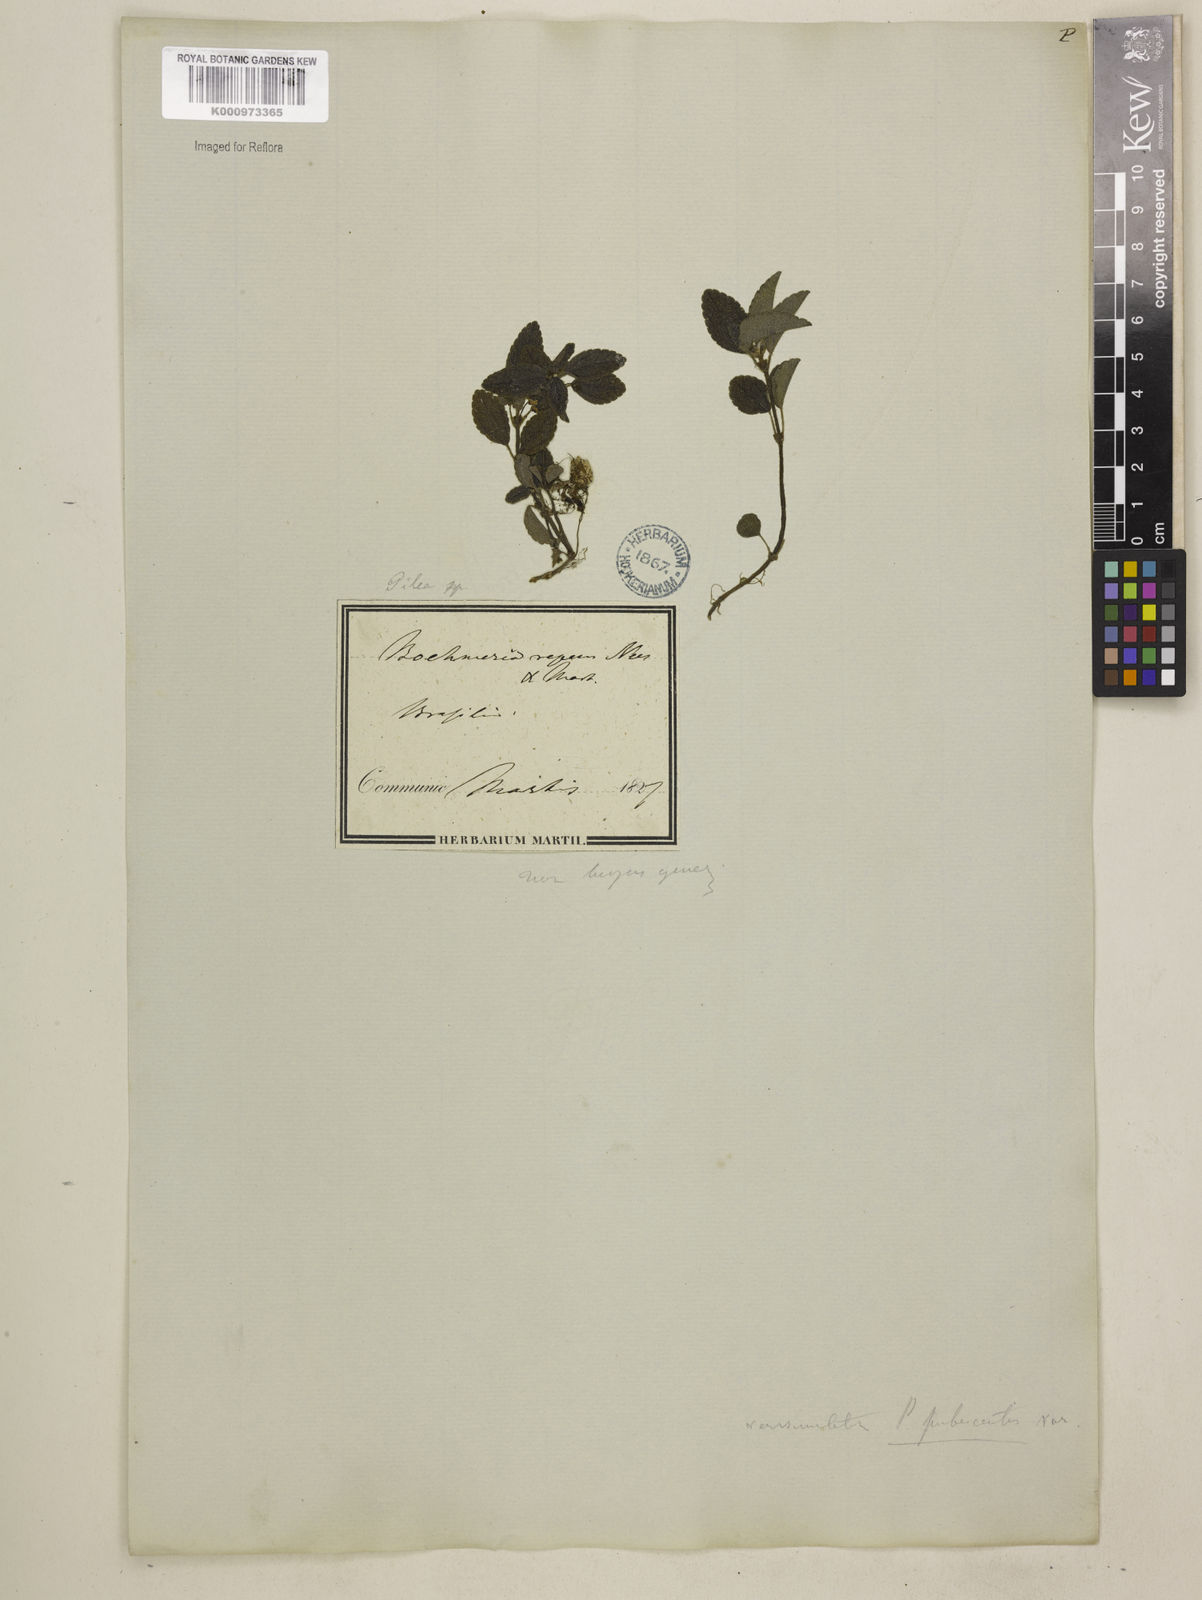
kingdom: Plantae
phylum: Tracheophyta
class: Magnoliopsida
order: Rosales
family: Urticaceae
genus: Pilea
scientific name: Pilea
